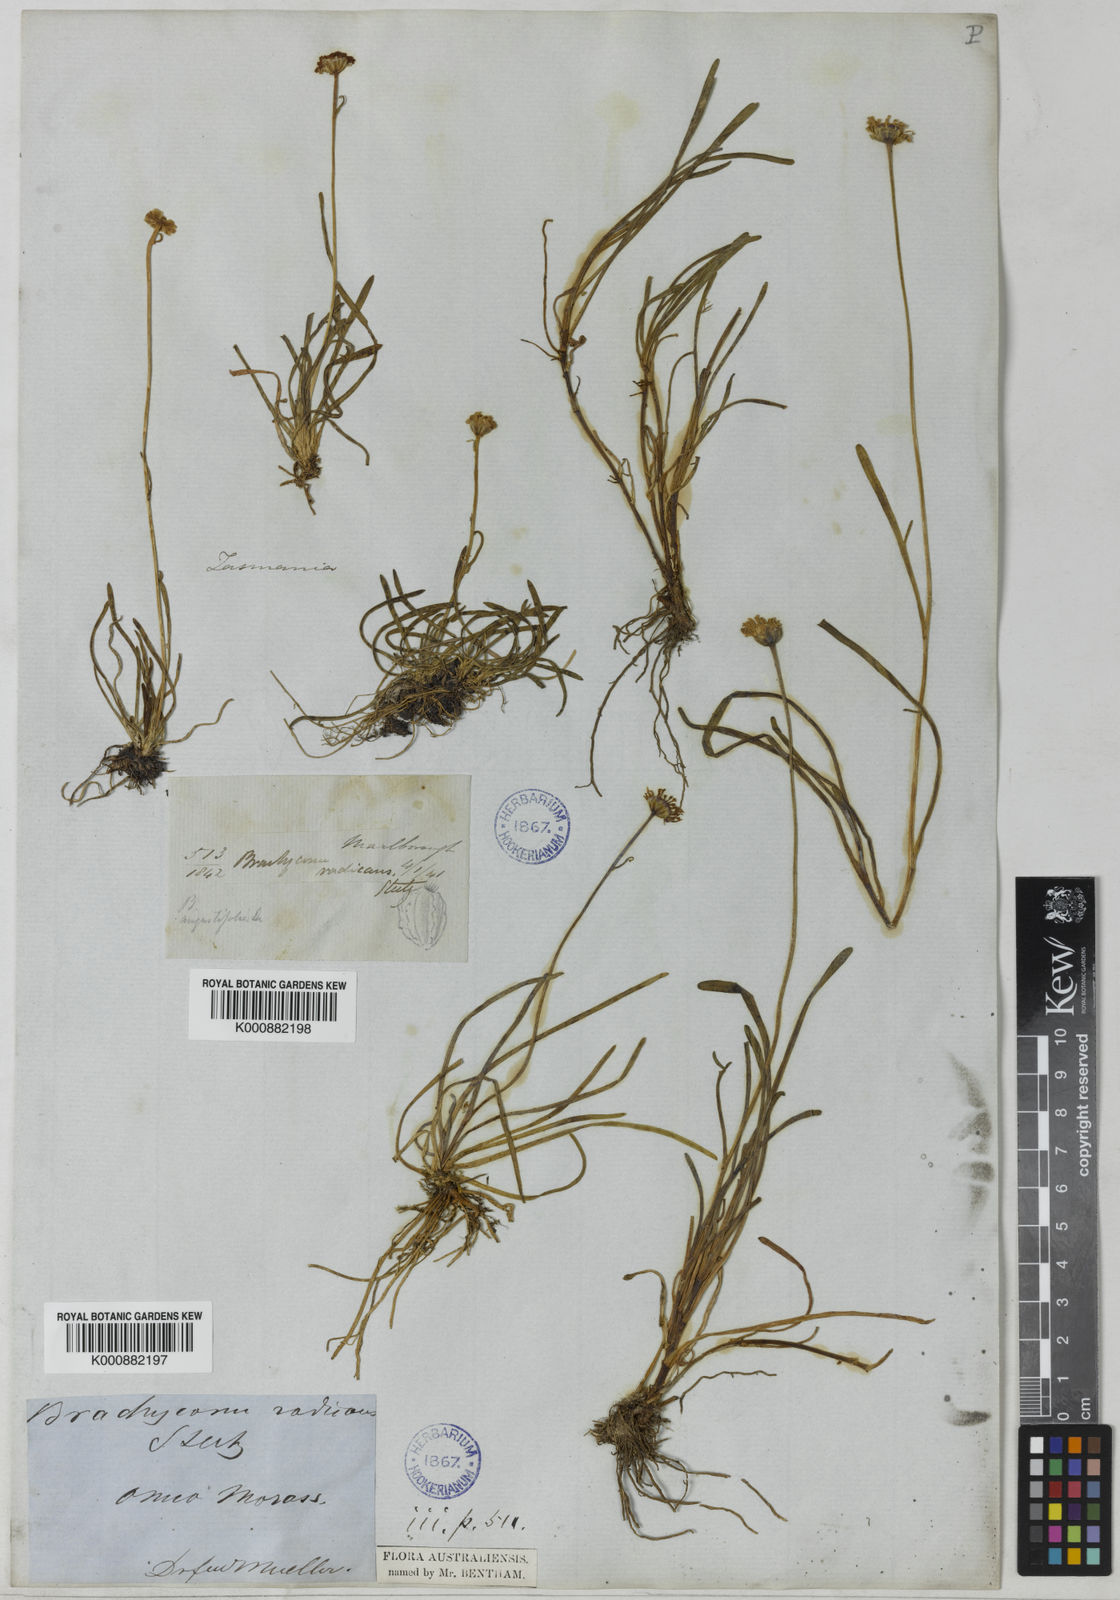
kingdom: Plantae
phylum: Tracheophyta
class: Magnoliopsida
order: Asterales
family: Asteraceae
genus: Brachyscome
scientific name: Brachyscome radicans
